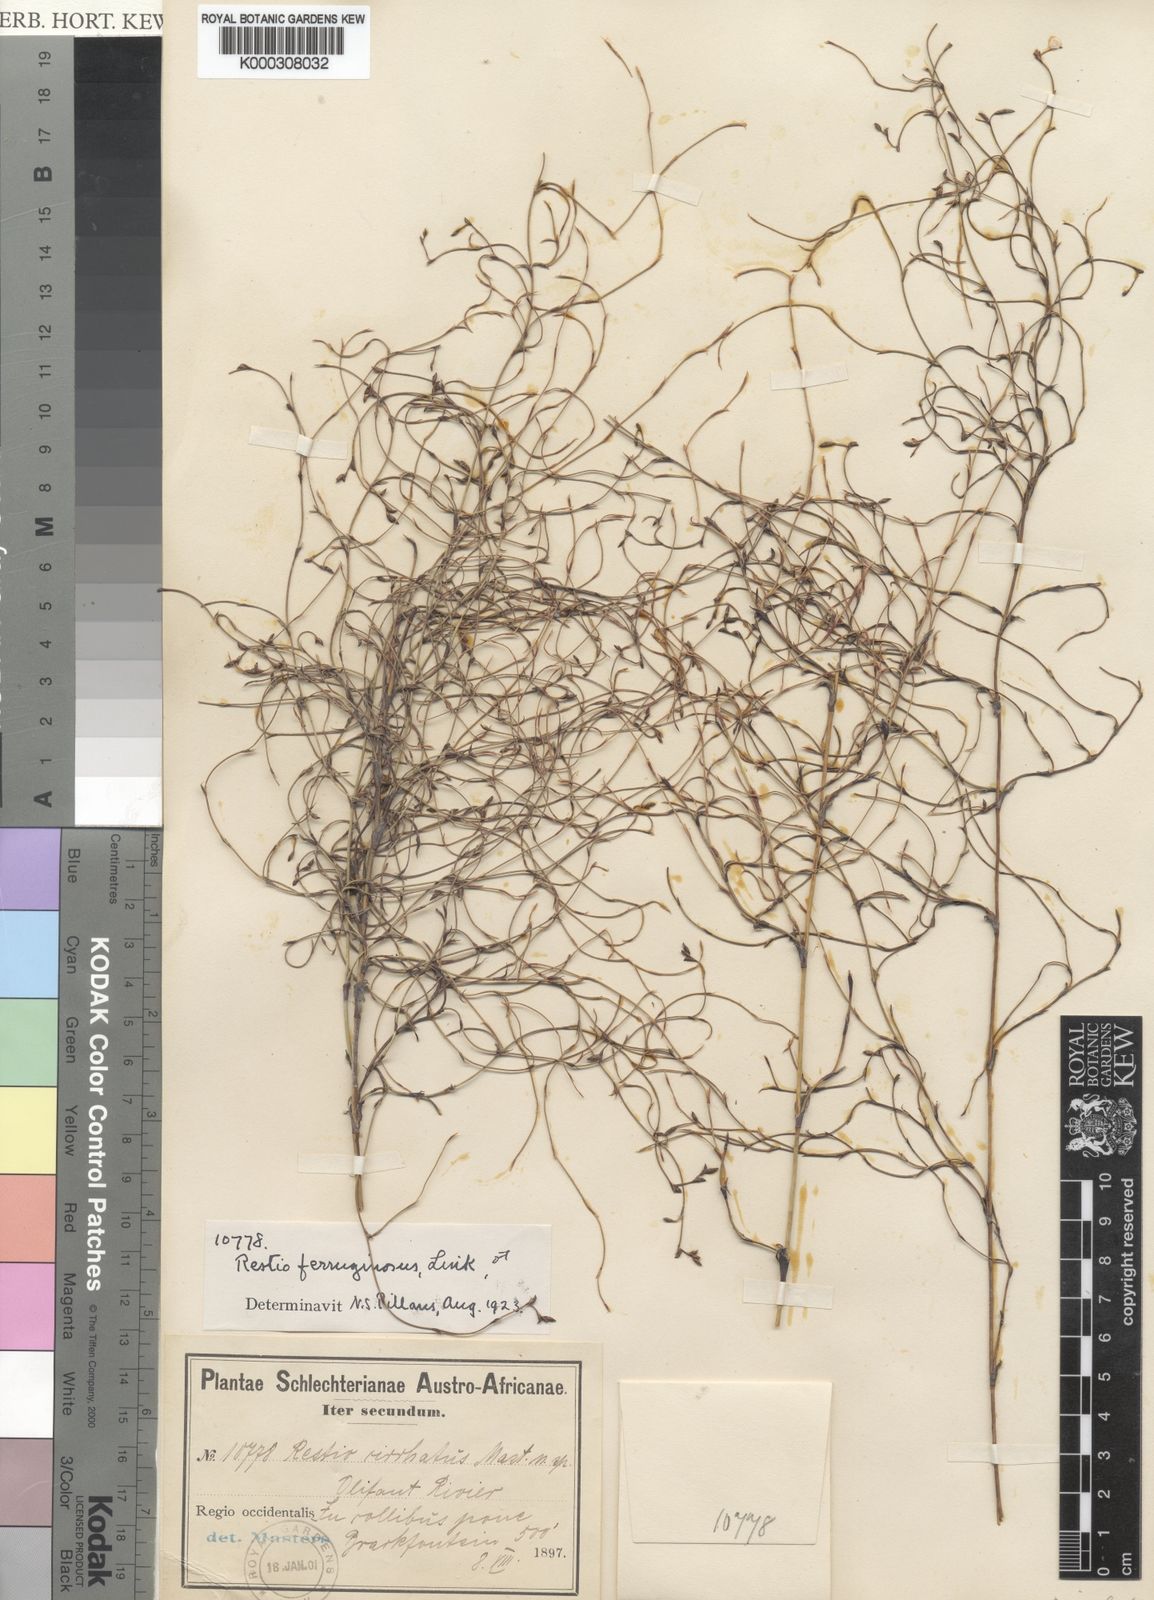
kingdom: Plantae
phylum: Tracheophyta
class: Liliopsida
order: Poales
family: Restionaceae
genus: Restio
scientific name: Restio gaudichaudianus
